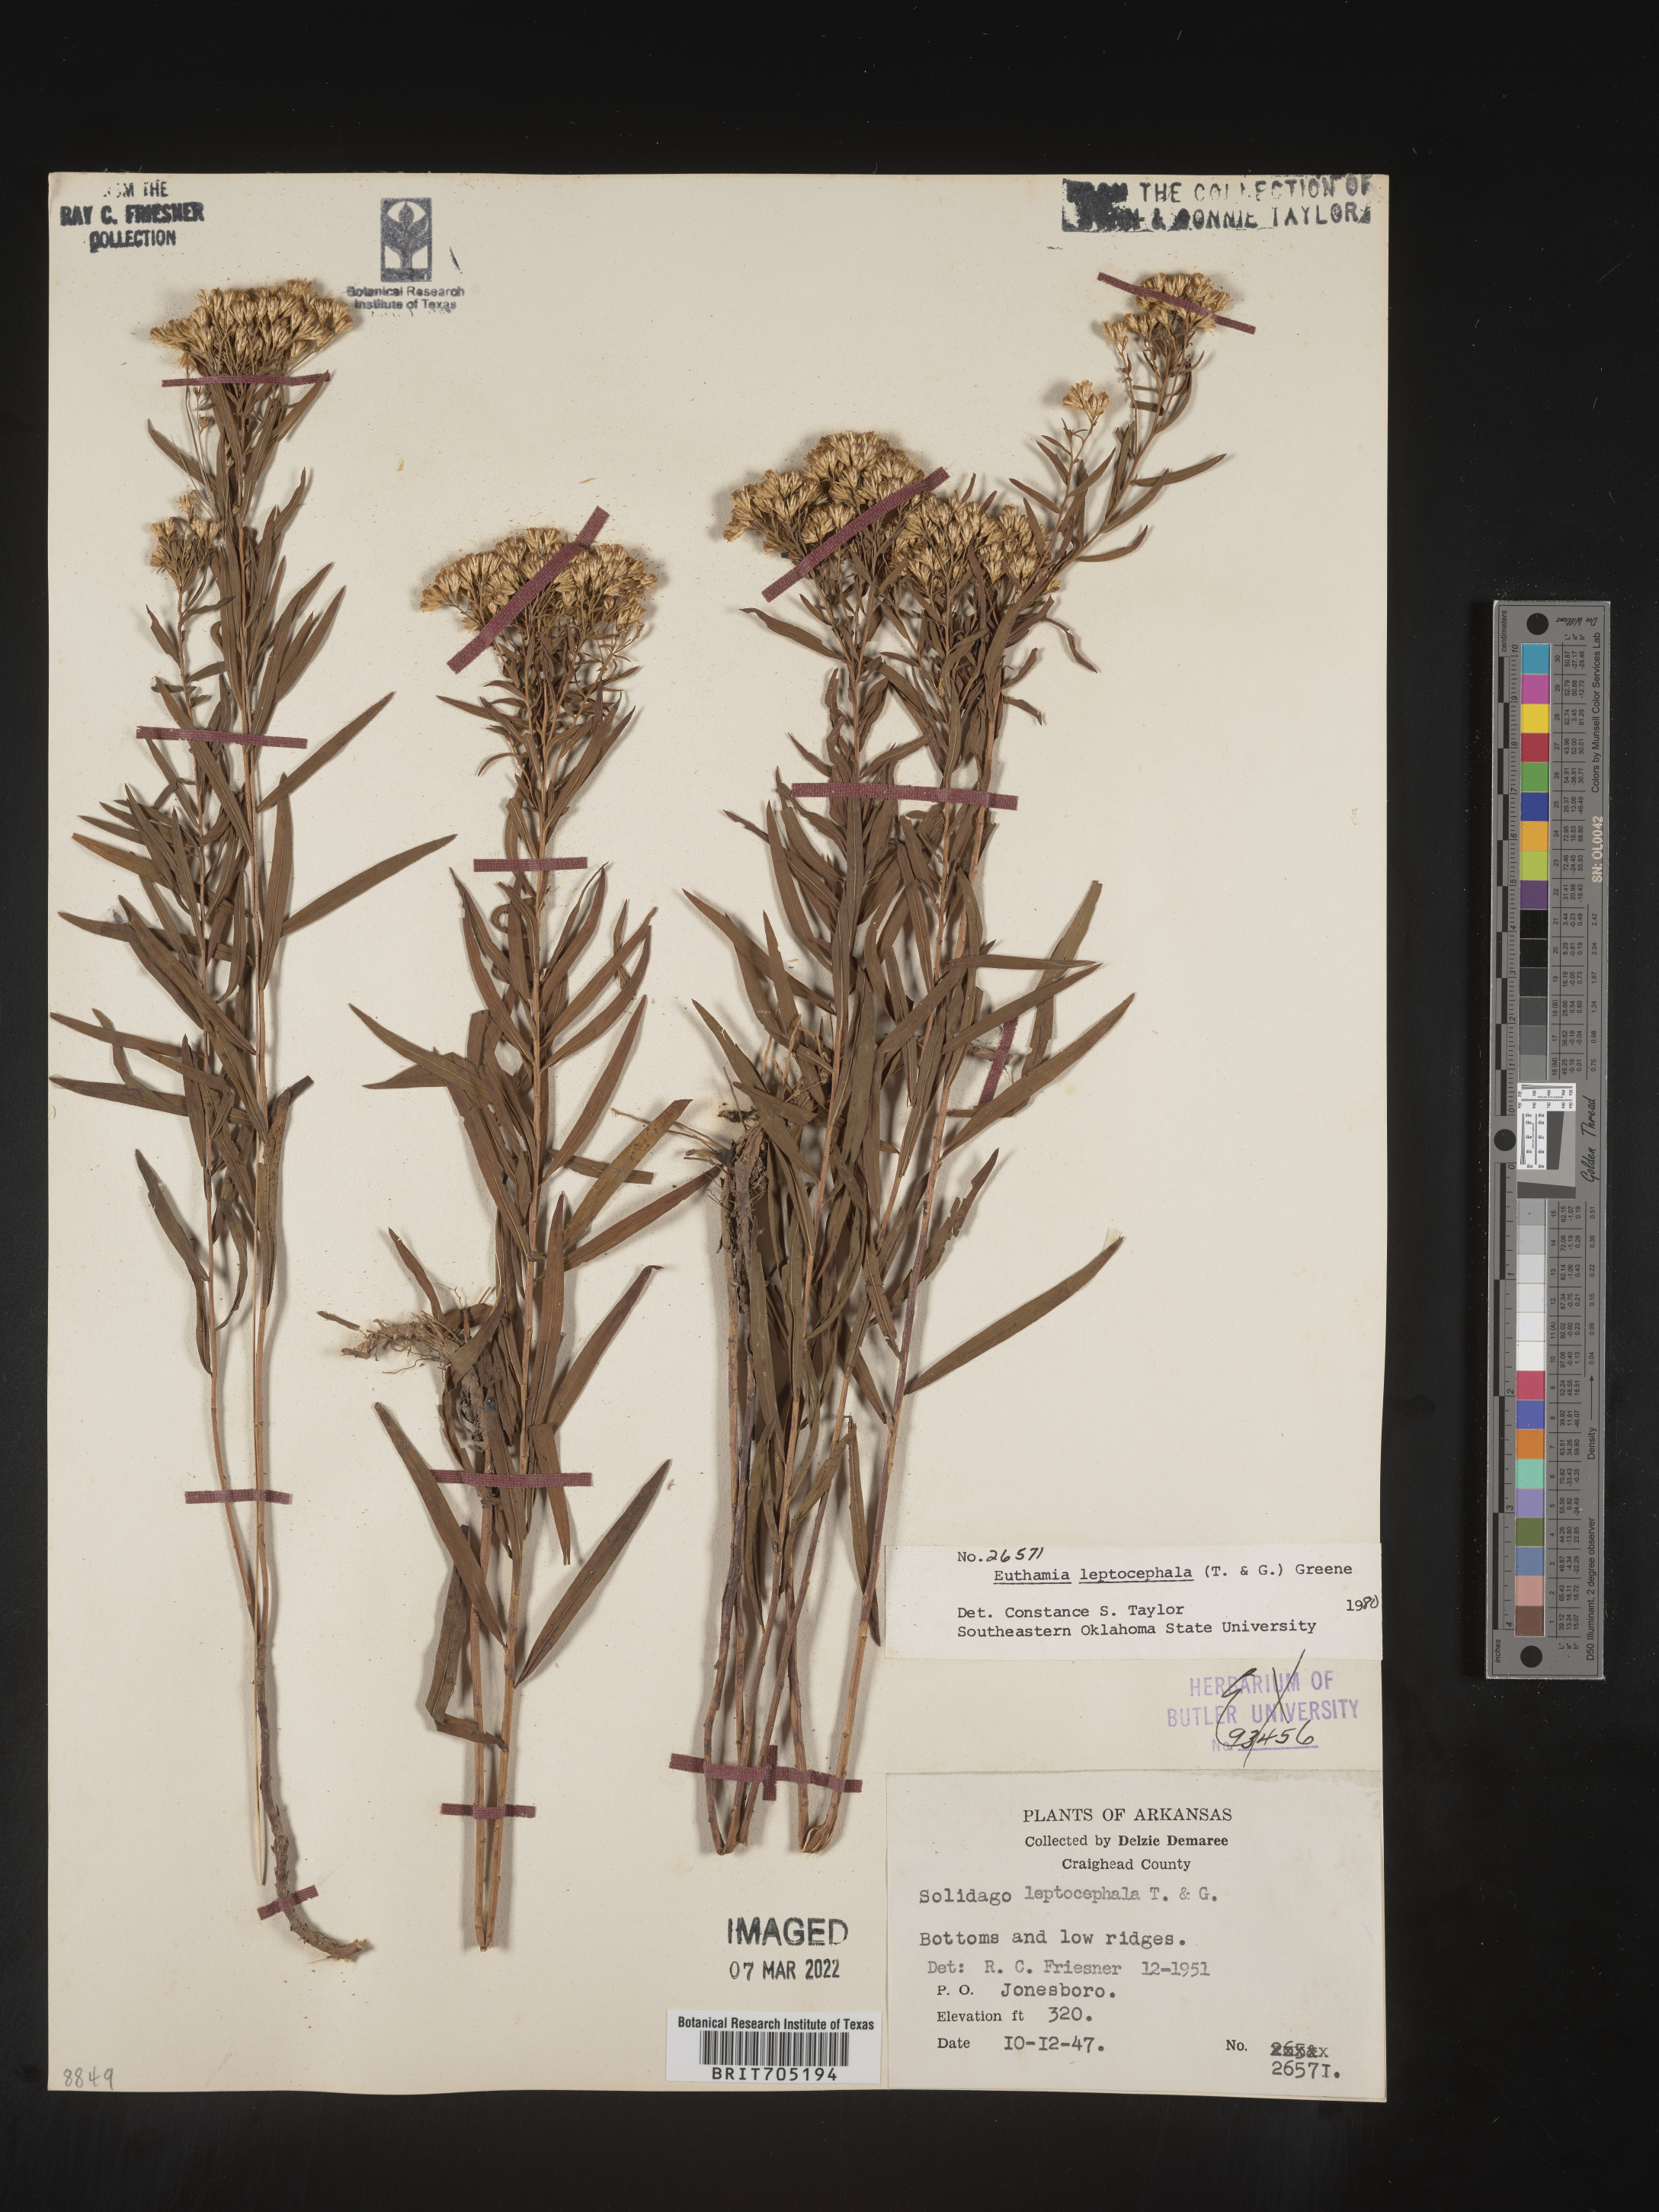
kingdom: Plantae
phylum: Tracheophyta
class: Magnoliopsida
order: Asterales
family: Asteraceae
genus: Euthamia
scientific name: Euthamia leptocephala
